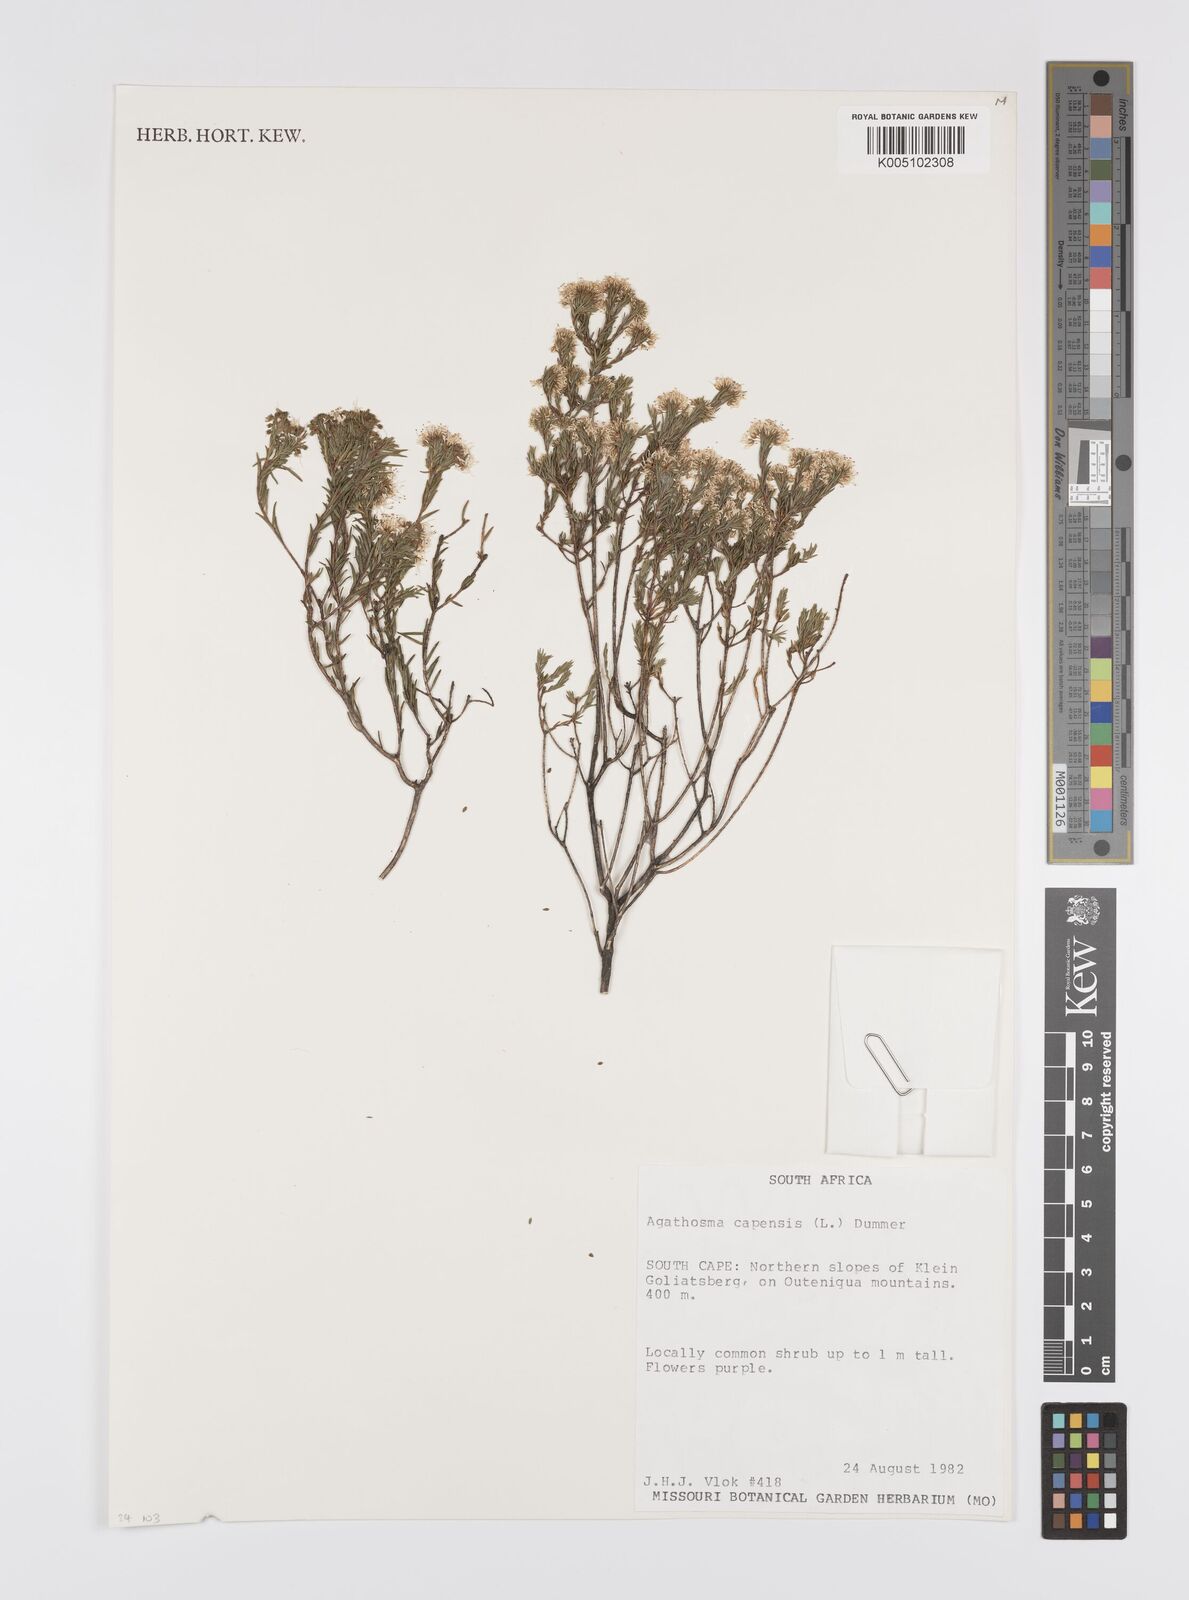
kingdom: Plantae
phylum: Tracheophyta
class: Magnoliopsida
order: Sapindales
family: Rutaceae
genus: Agathosma
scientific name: Agathosma capensis
